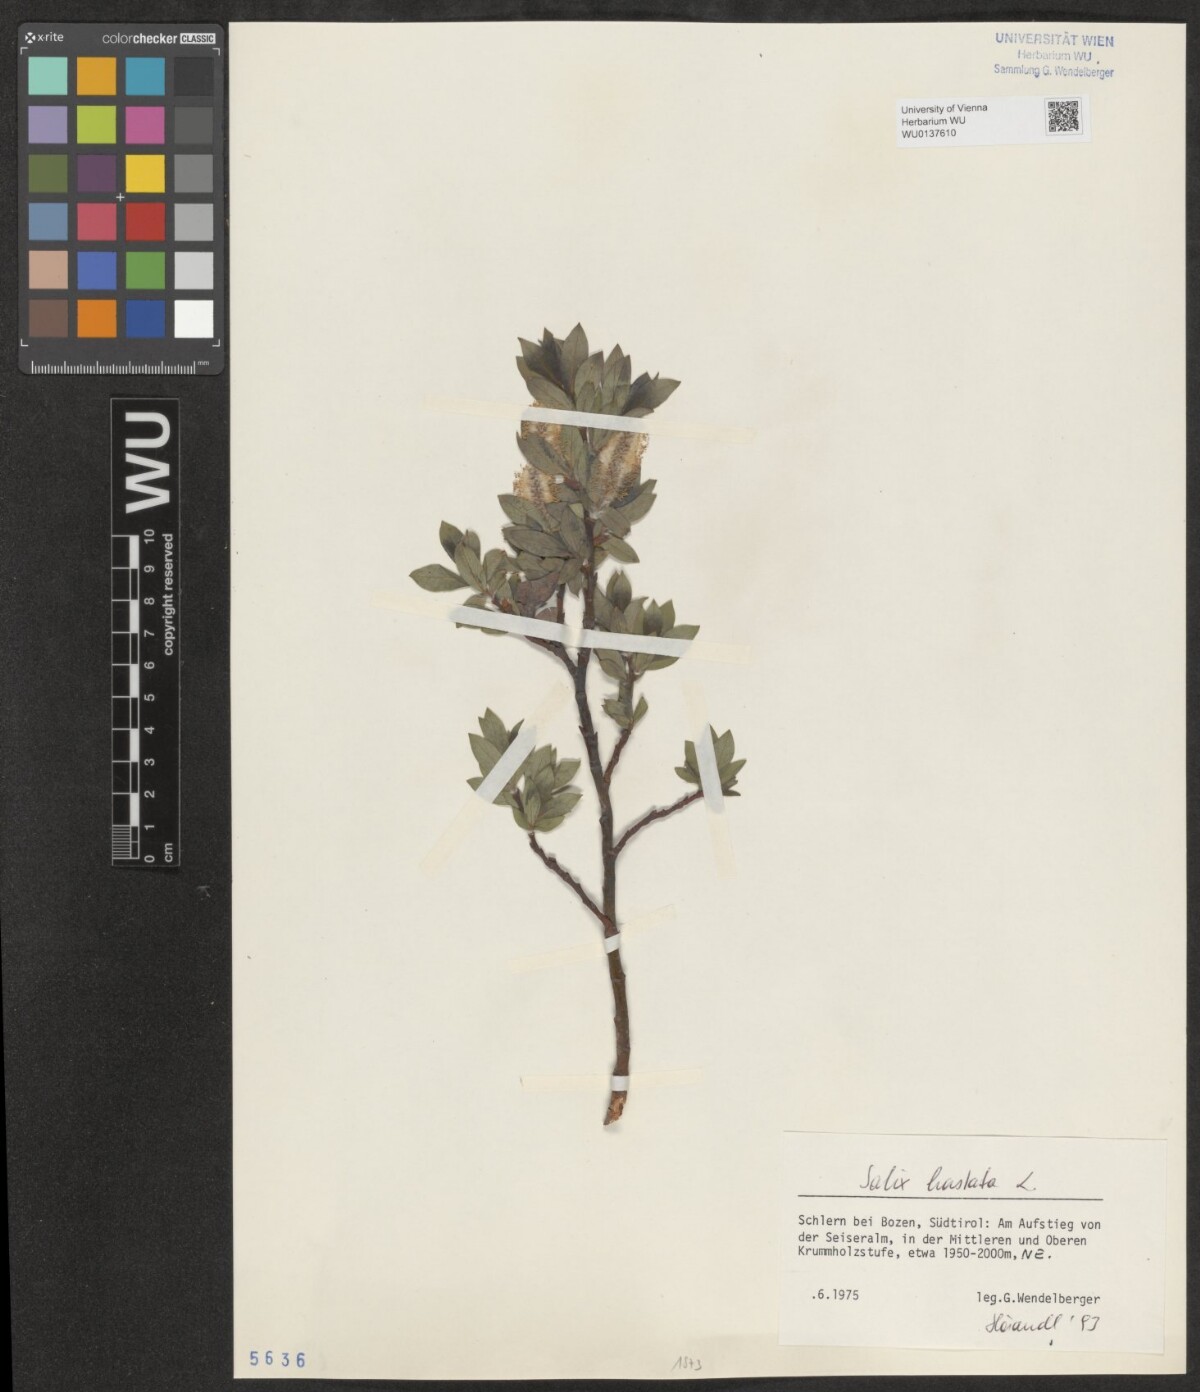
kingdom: Plantae
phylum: Tracheophyta
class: Magnoliopsida
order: Malpighiales
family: Salicaceae
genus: Salix
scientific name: Salix hastata
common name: Halberd willow
